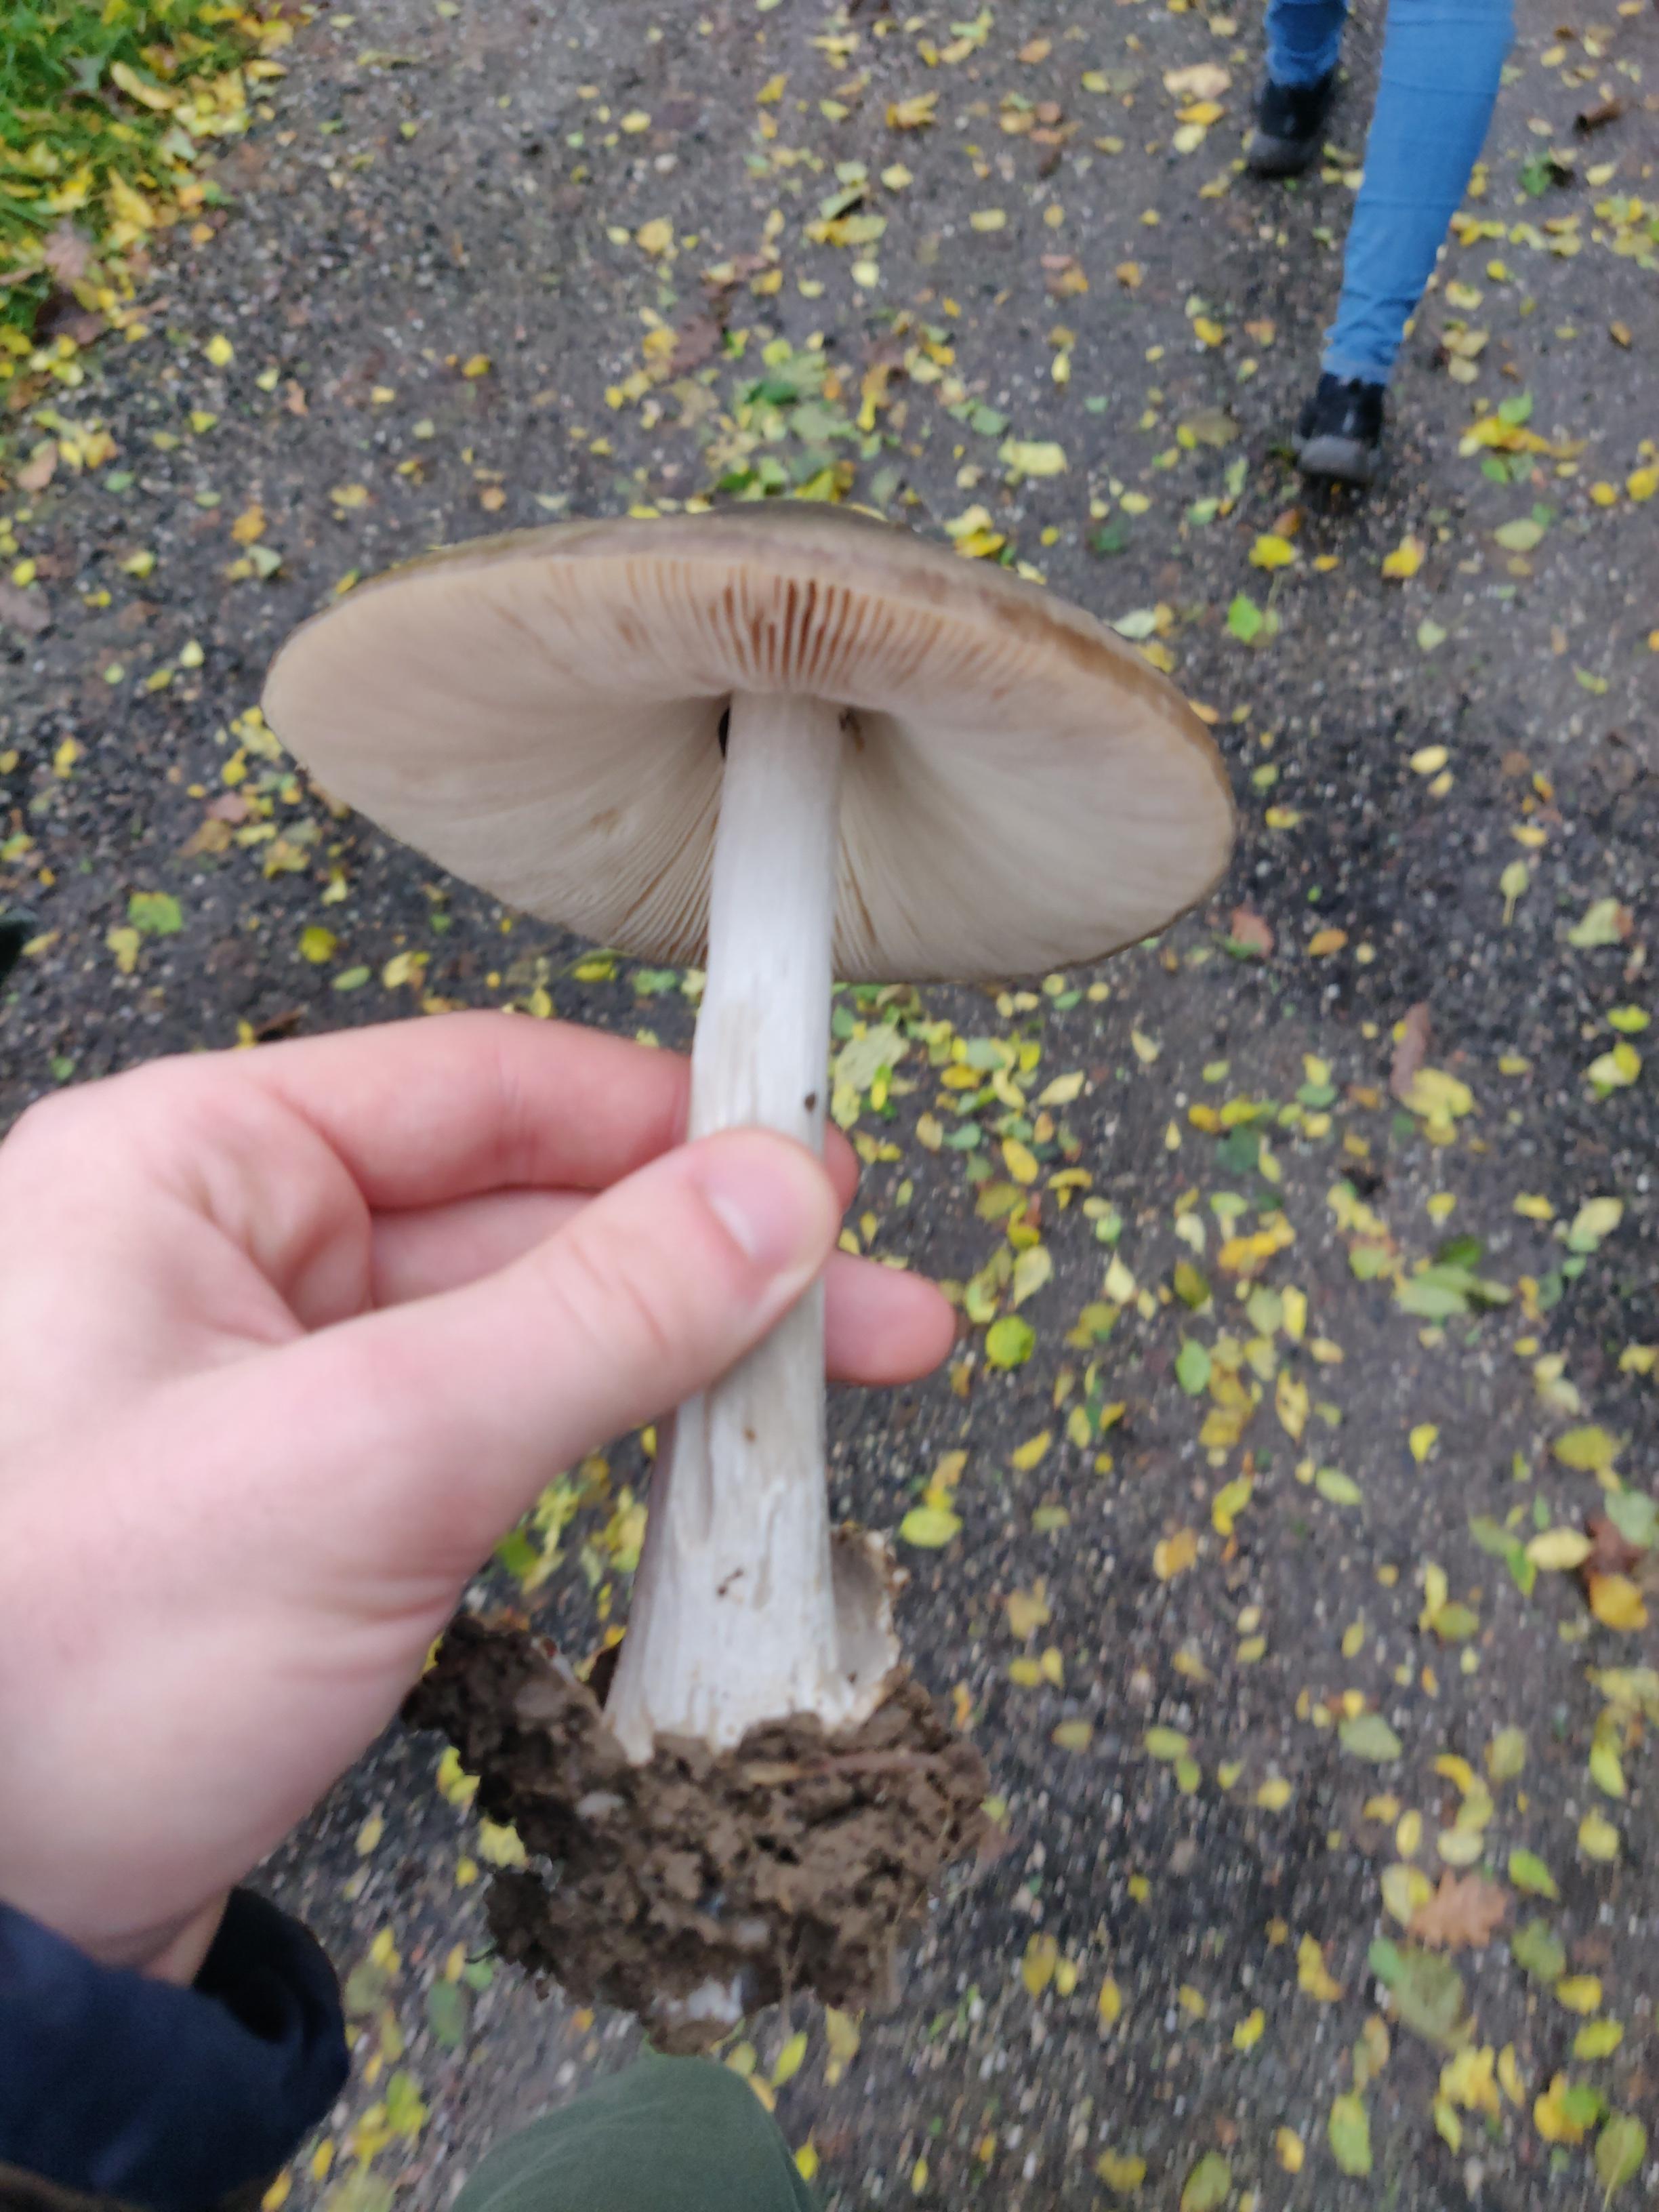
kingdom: Fungi
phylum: Basidiomycota
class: Agaricomycetes
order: Agaricales
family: Pluteaceae
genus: Volvopluteus
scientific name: Volvopluteus gloiocephalus
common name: høj posesvamp
